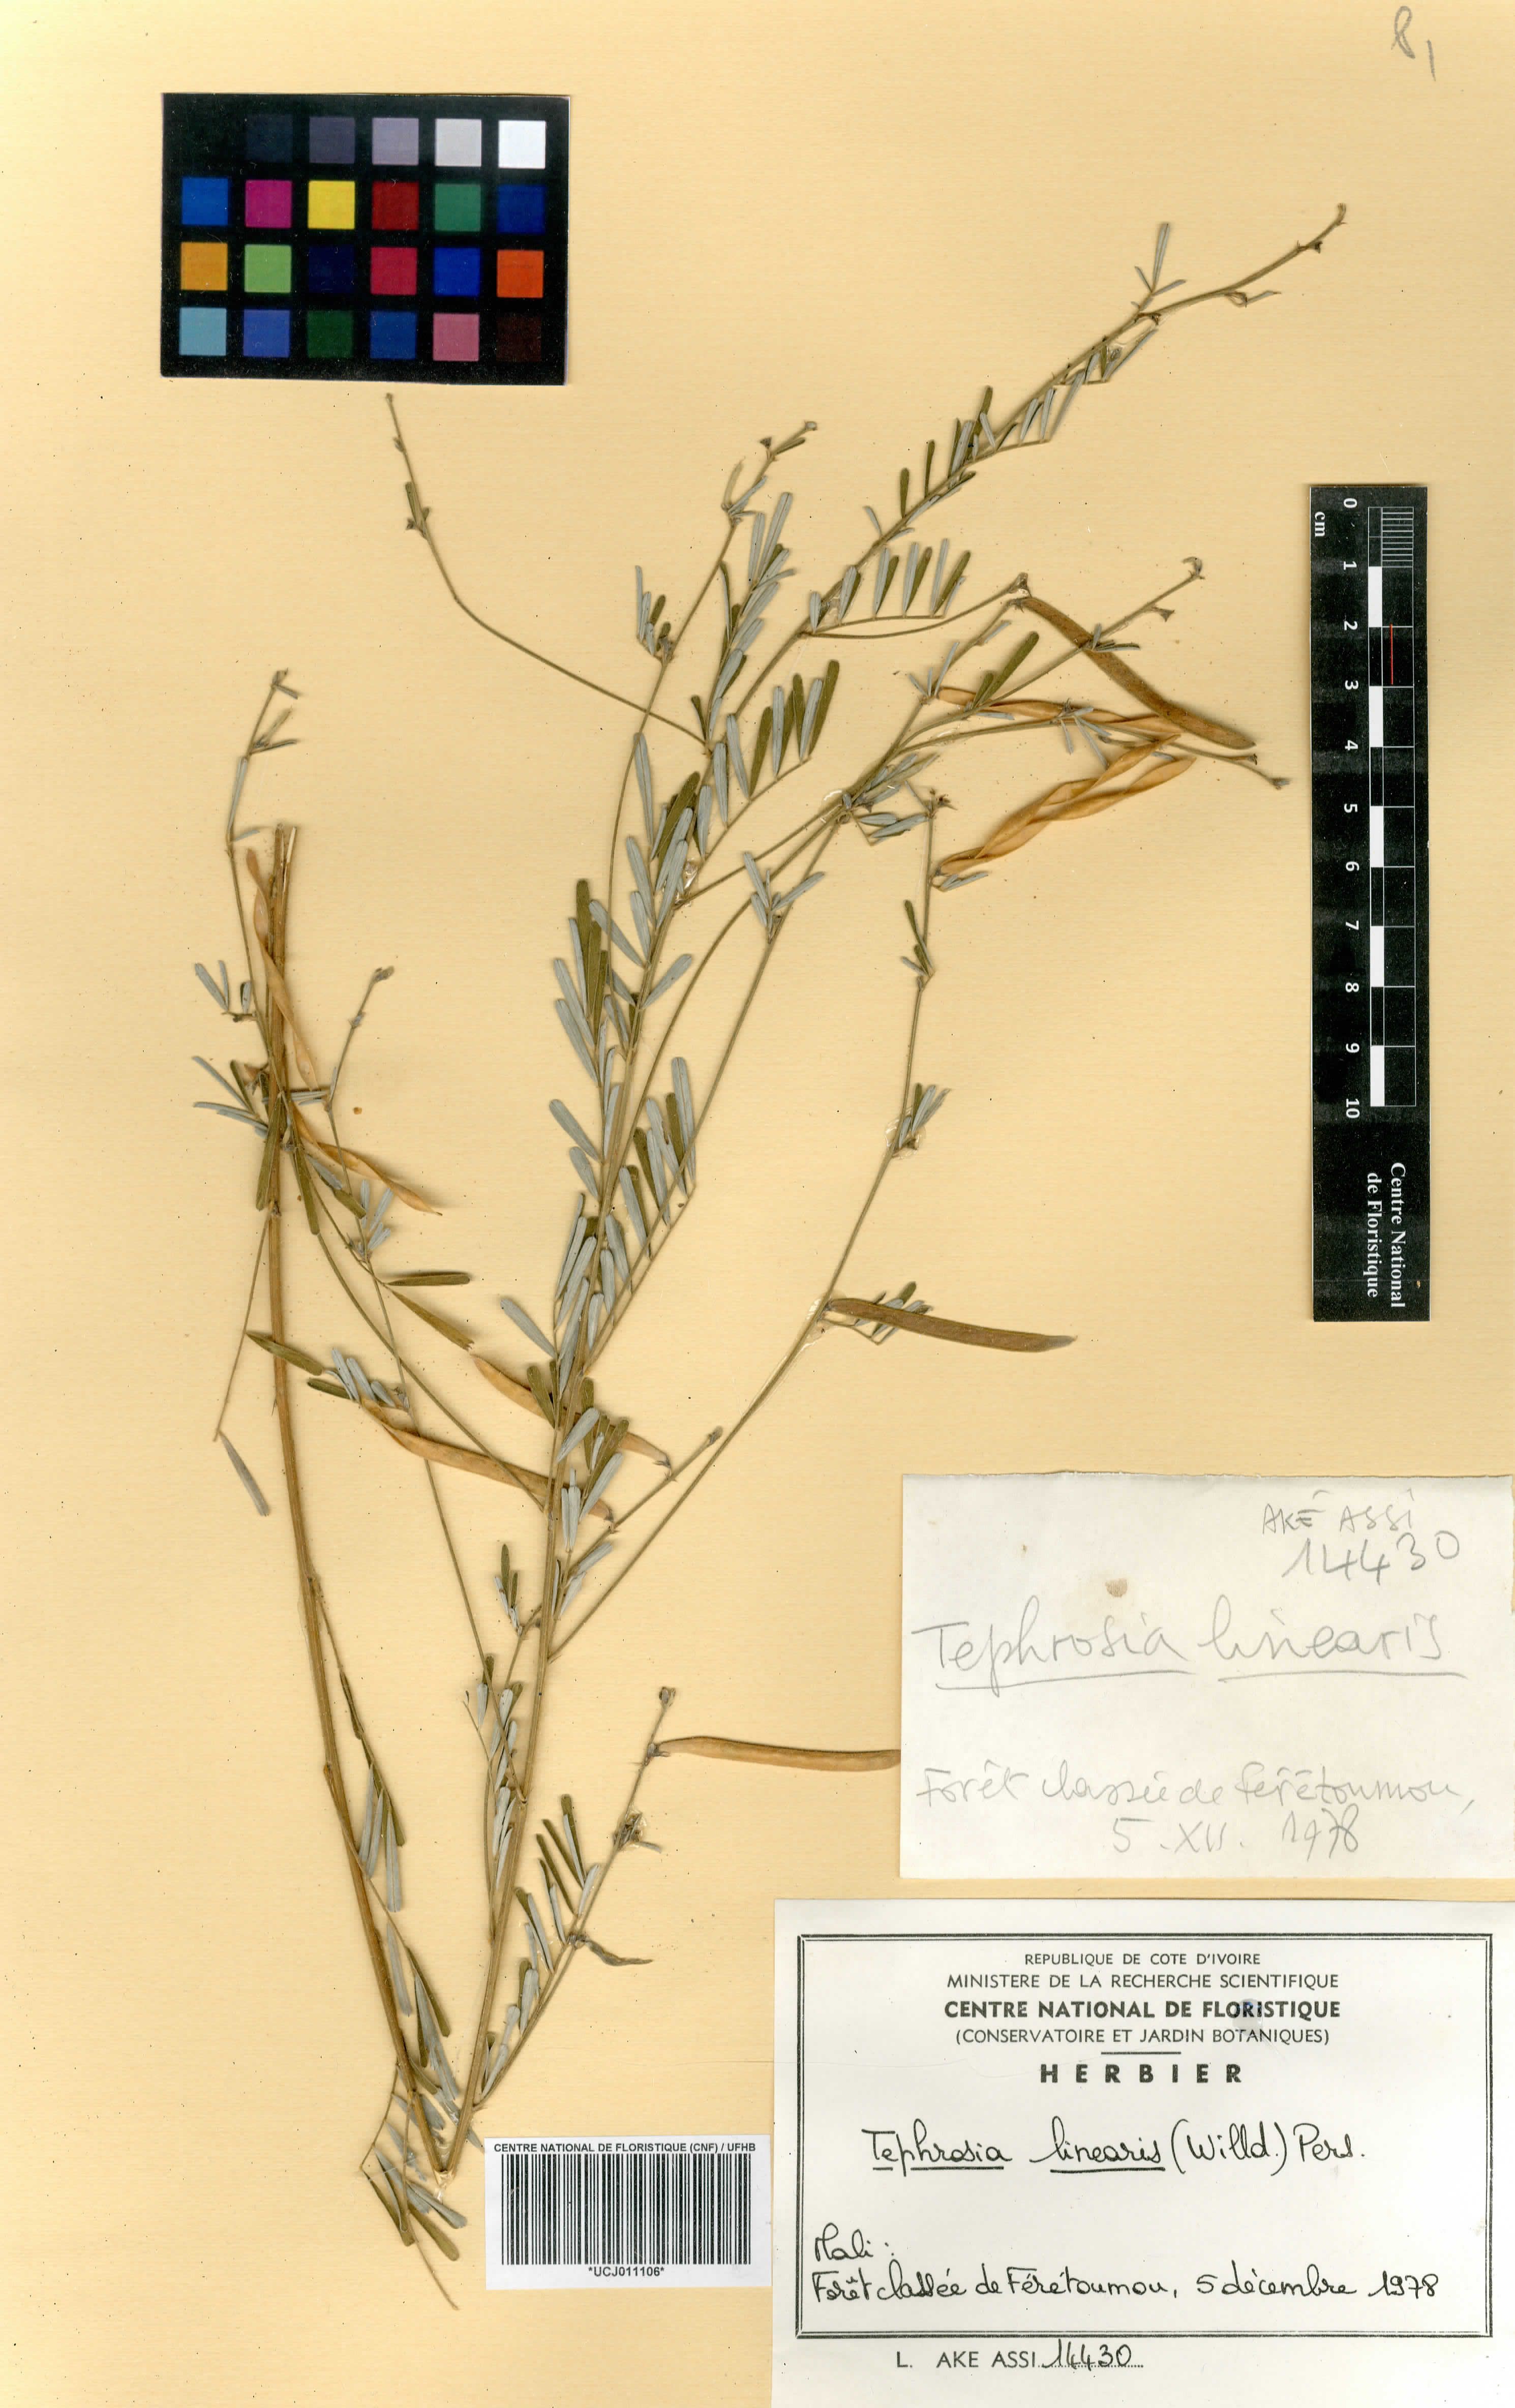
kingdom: Plantae
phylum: Tracheophyta
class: Magnoliopsida
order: Fabales
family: Fabaceae
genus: Tephrosia
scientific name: Tephrosia linearis
